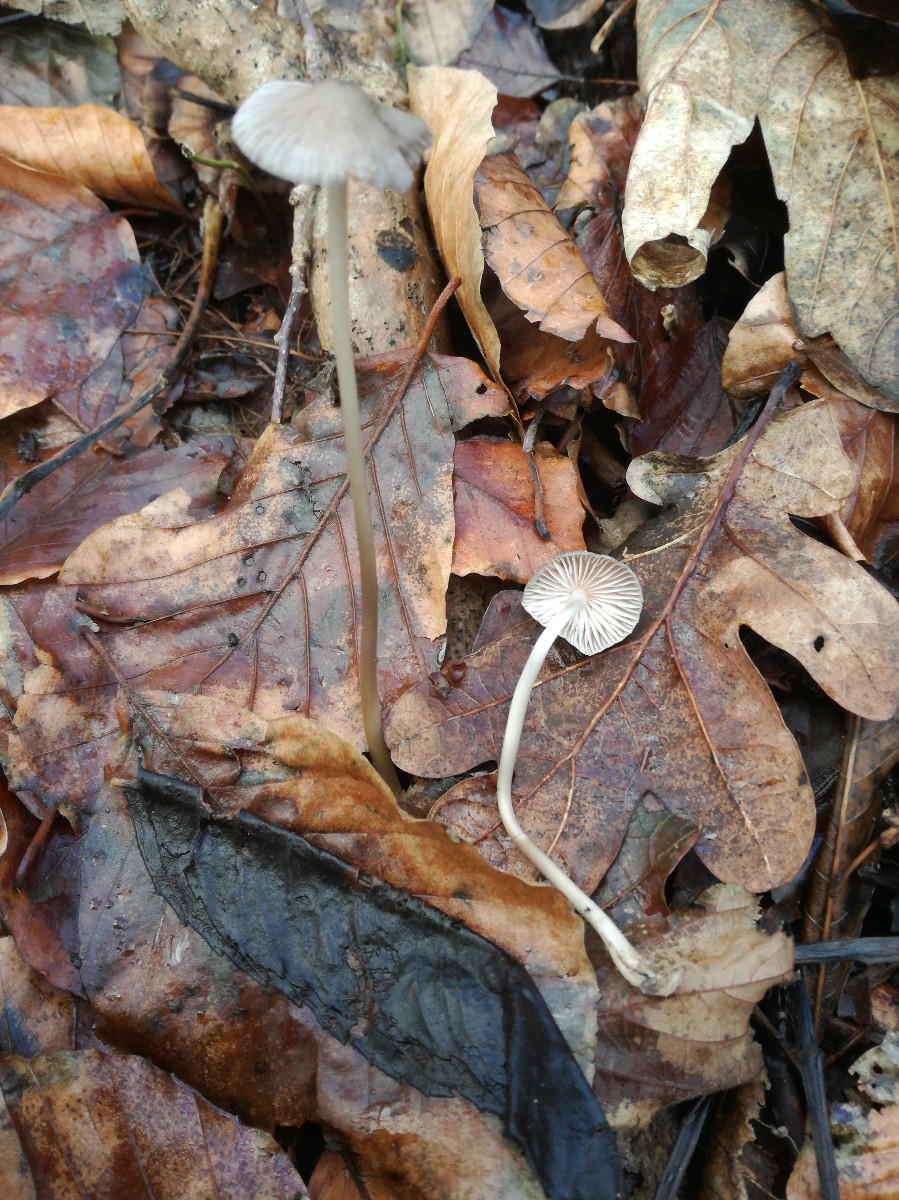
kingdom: Fungi
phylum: Basidiomycota
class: Agaricomycetes
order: Agaricales
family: Mycenaceae
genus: Mycena
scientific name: Mycena polygramma
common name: mangestribet huesvamp
